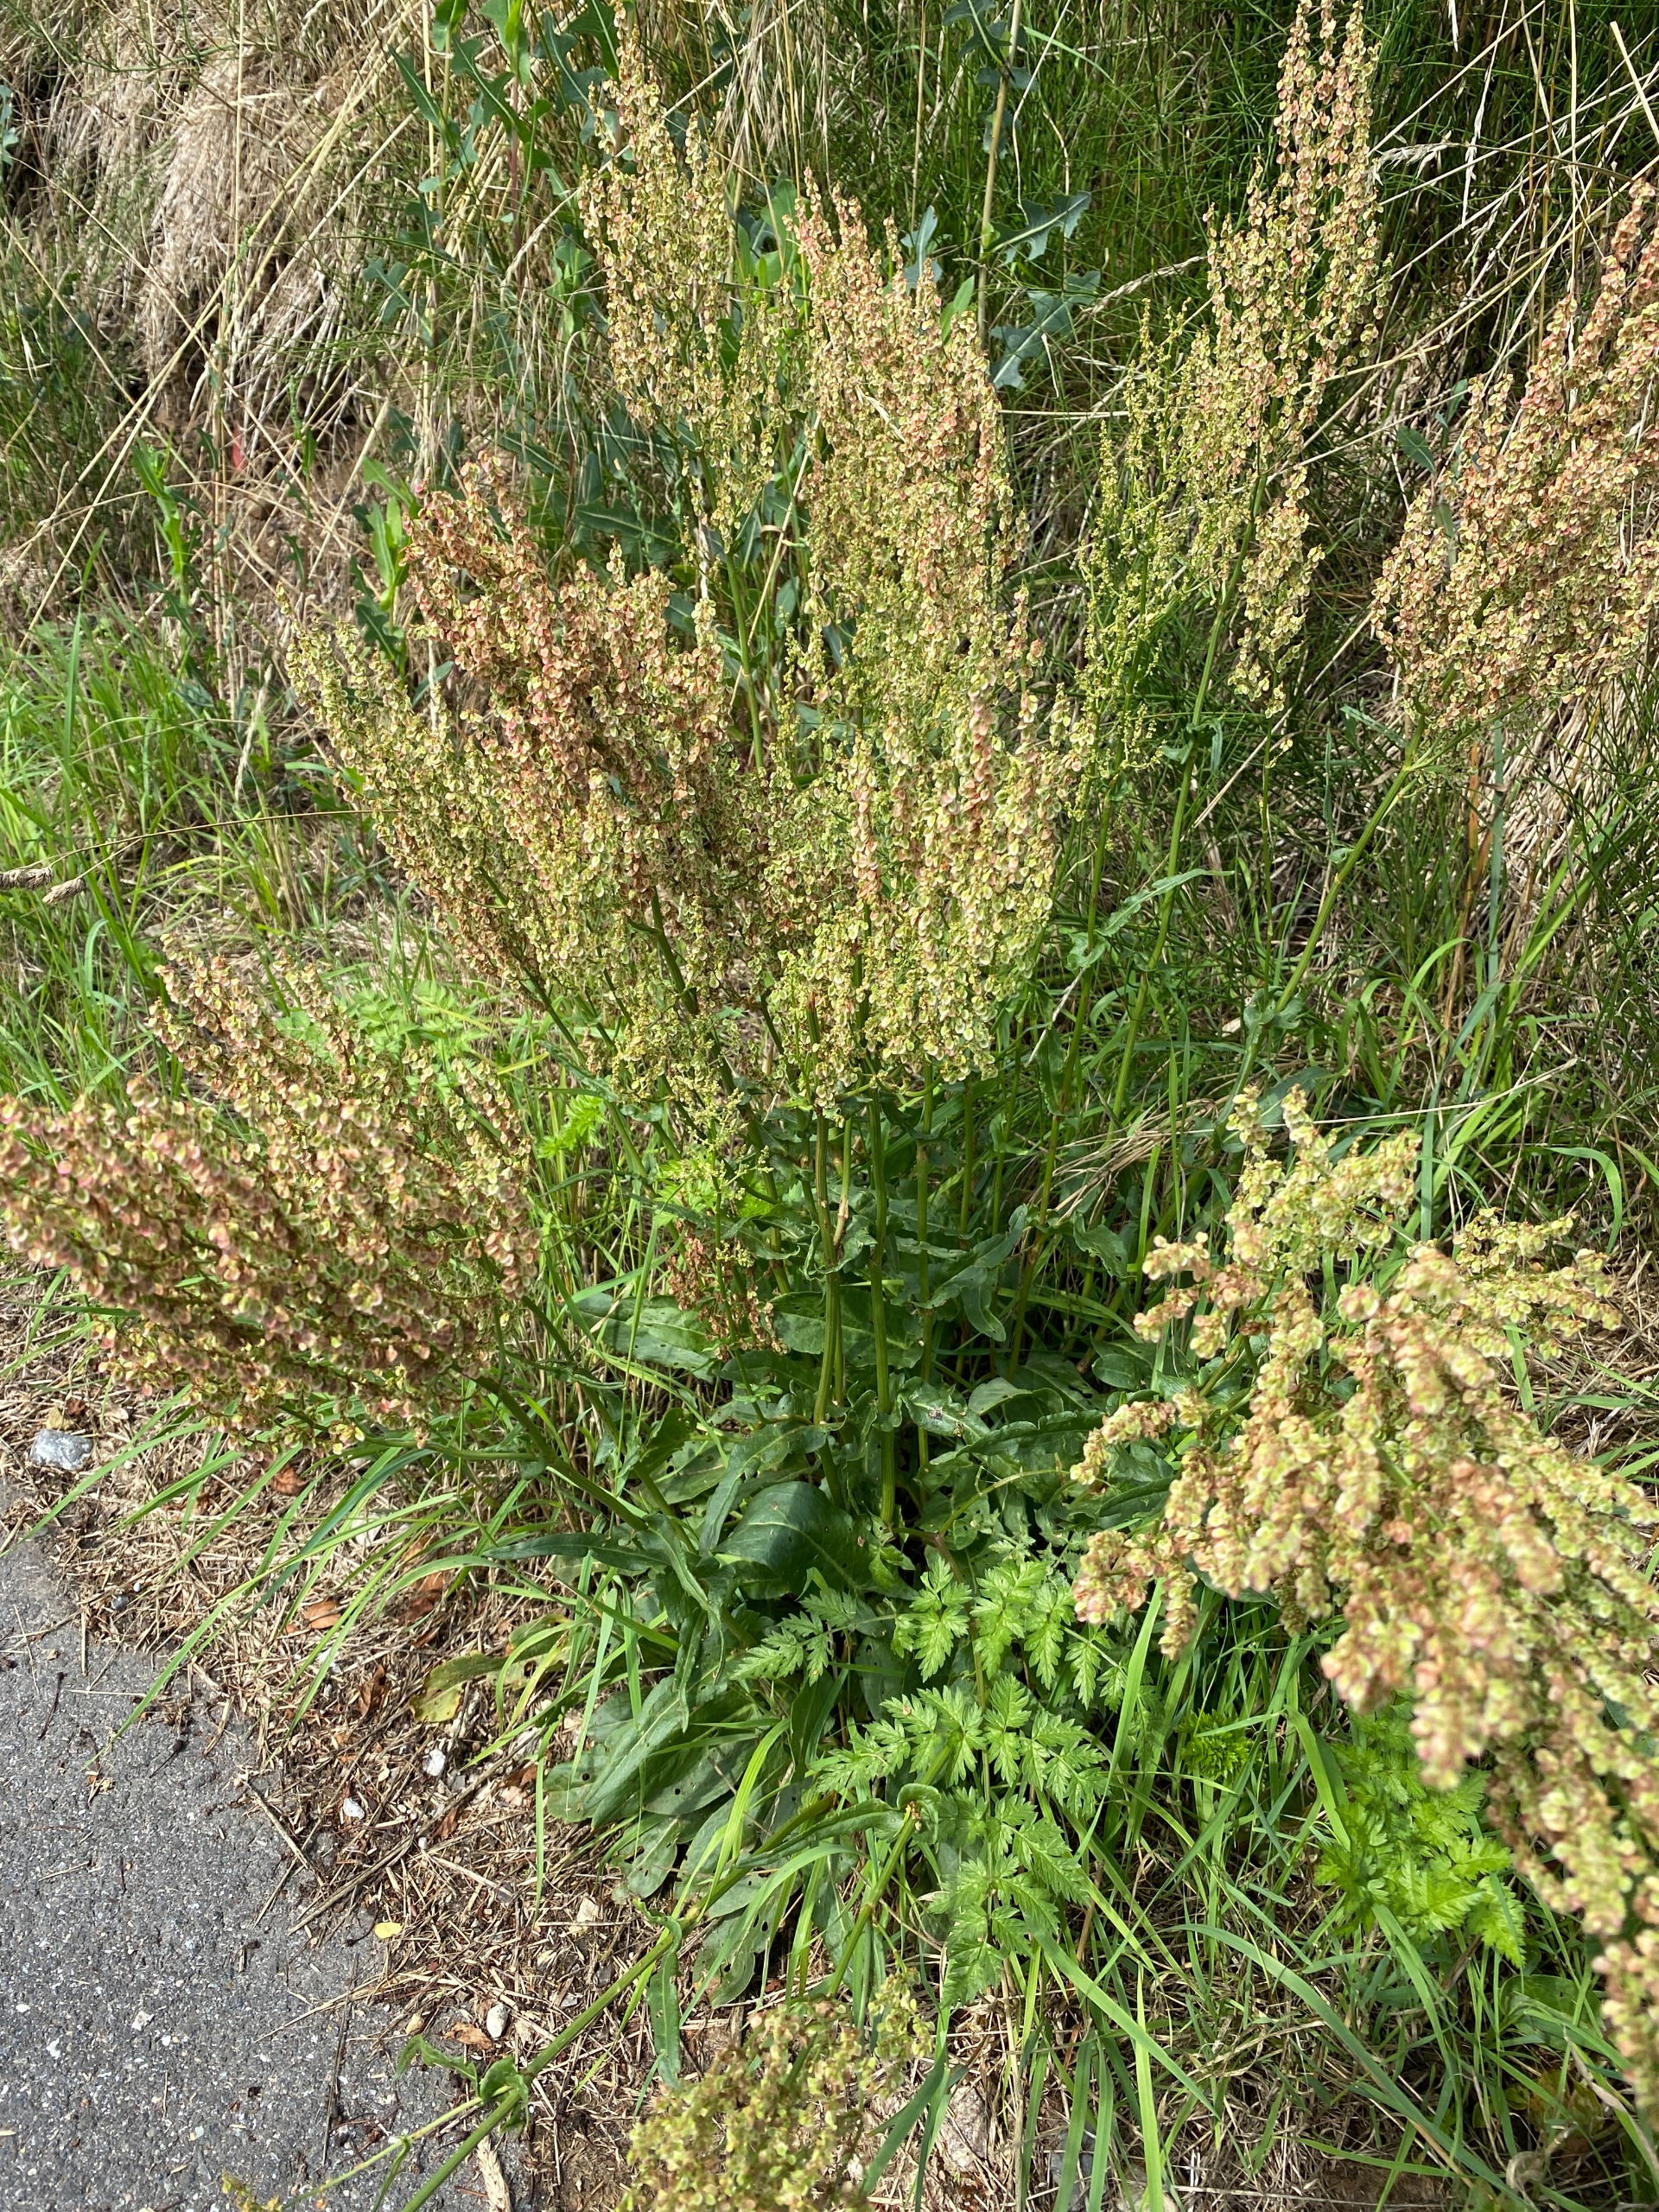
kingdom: Plantae
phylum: Tracheophyta
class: Magnoliopsida
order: Caryophyllales
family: Polygonaceae
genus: Rumex
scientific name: Rumex thyrsiflorus
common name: Dusk-syre
